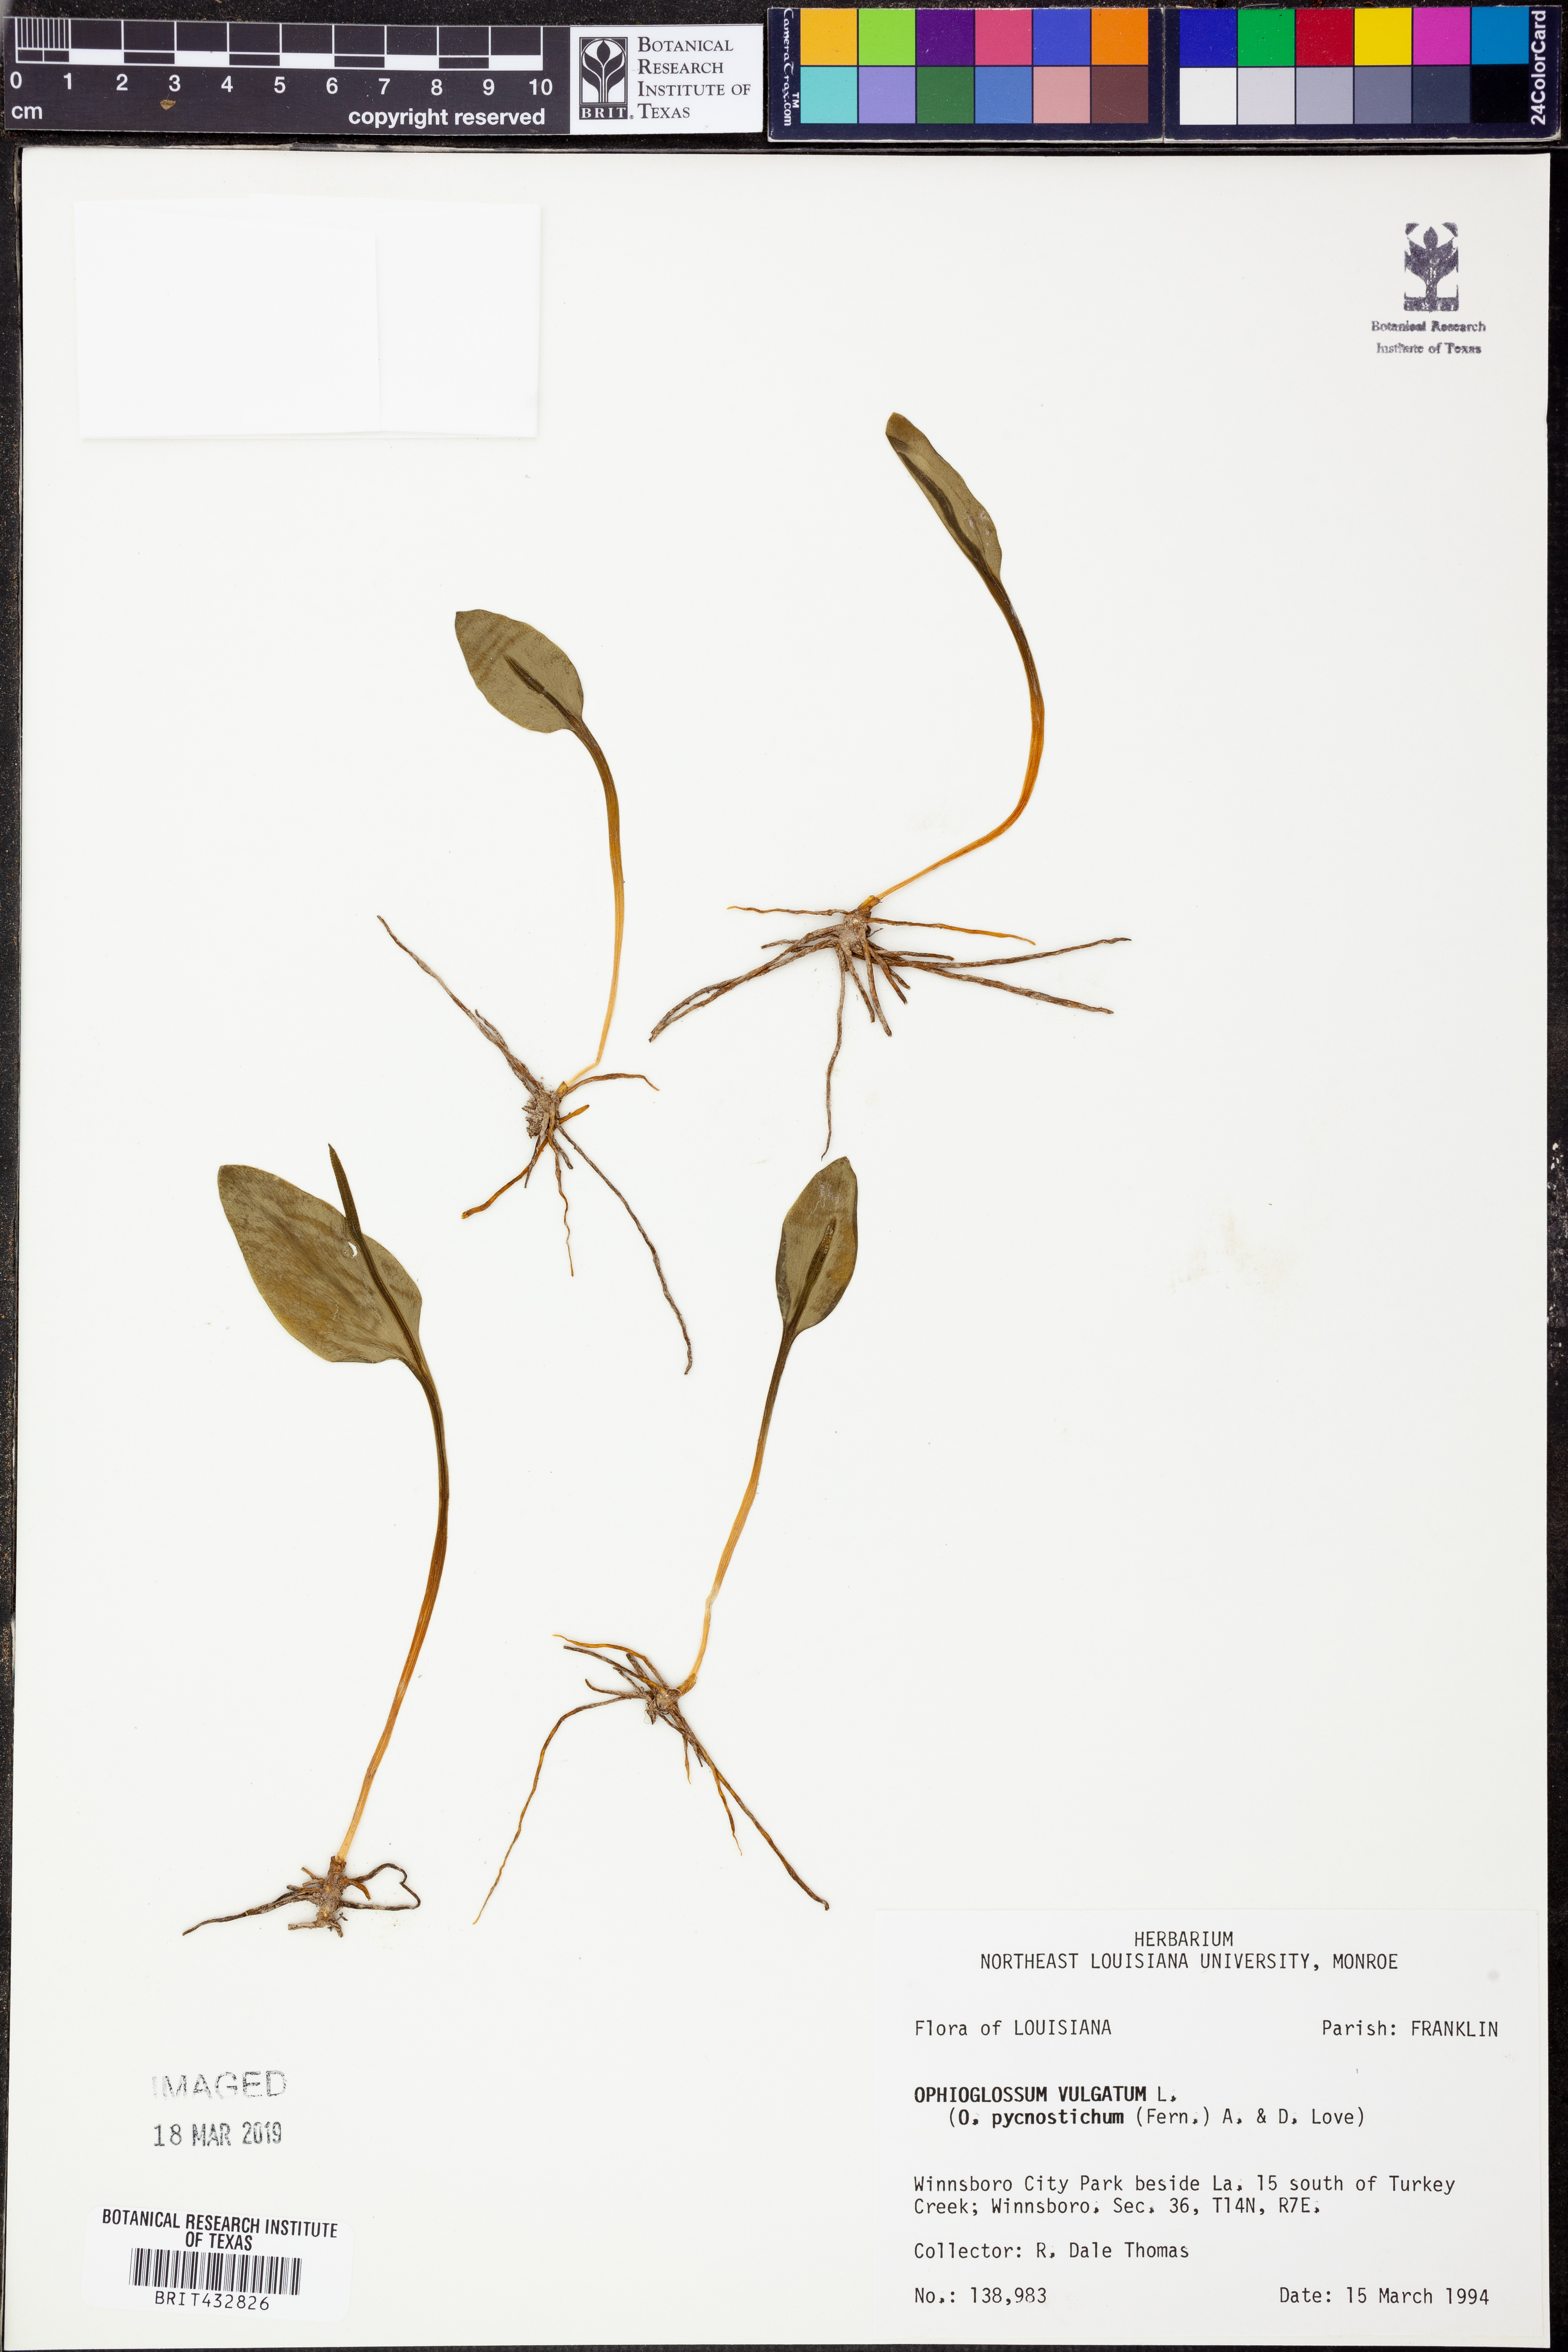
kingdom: Plantae
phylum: Tracheophyta
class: Polypodiopsida
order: Ophioglossales
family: Ophioglossaceae
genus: Ophioglossum
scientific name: Ophioglossum vulgatum
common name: Adder's-tongue
